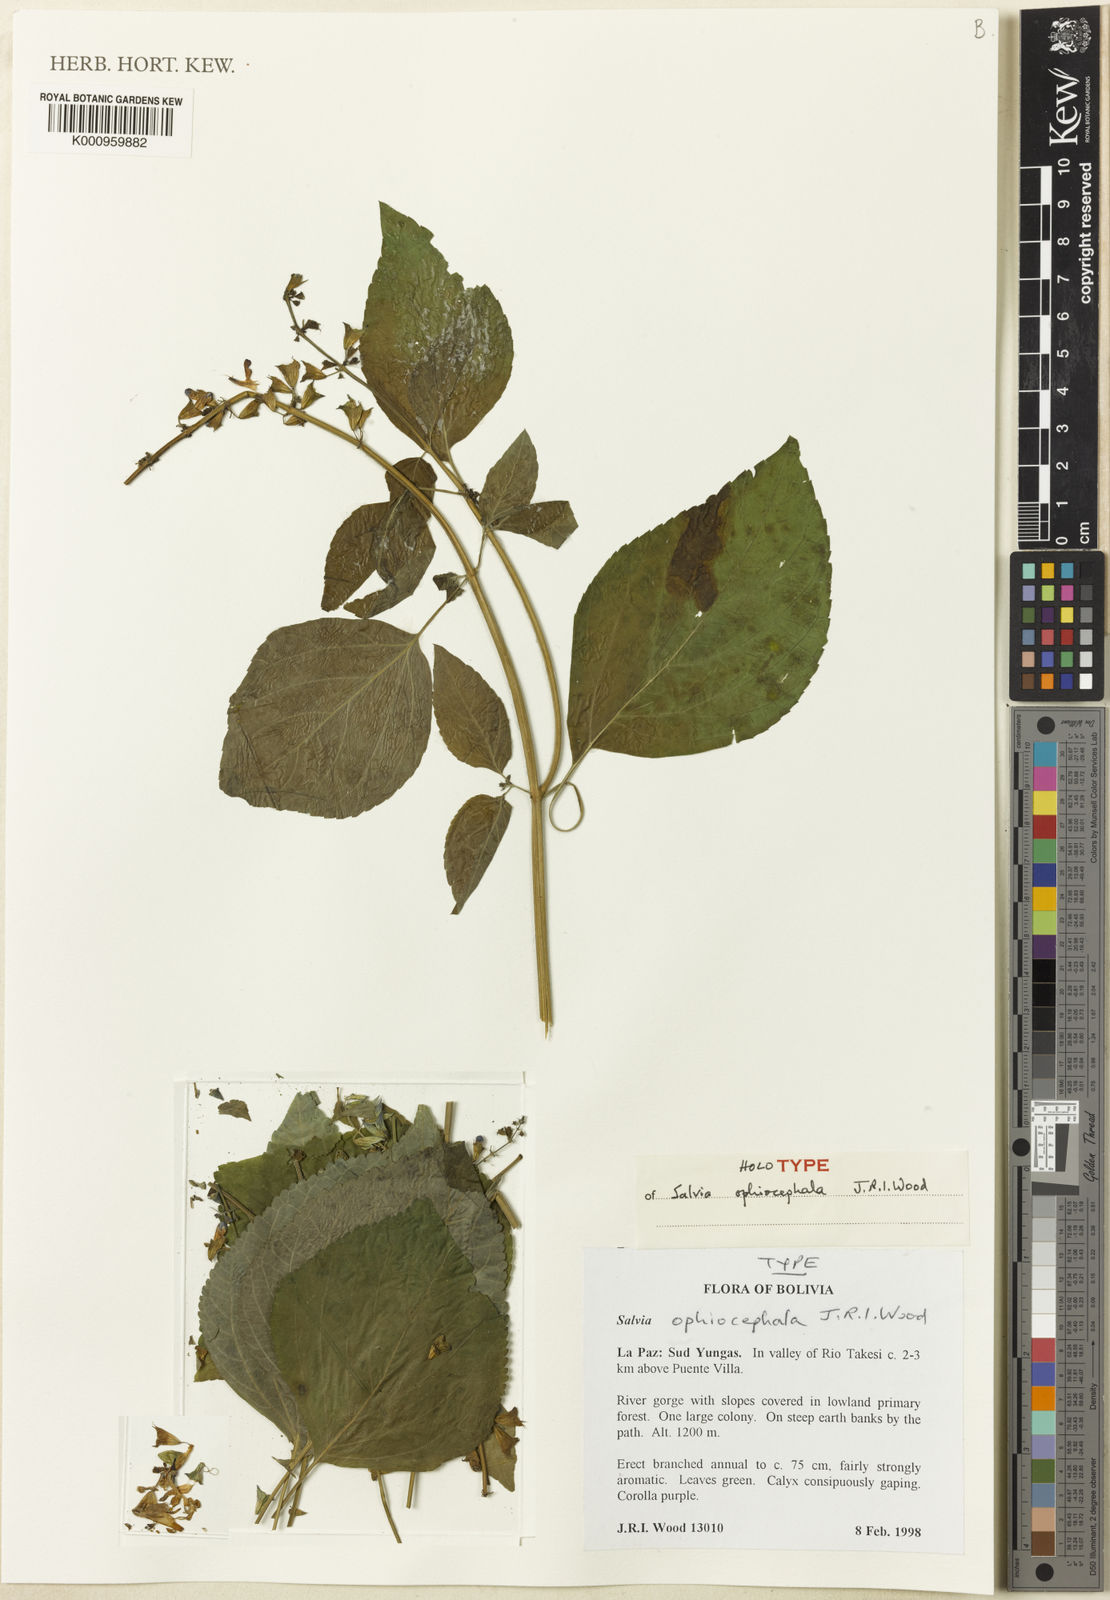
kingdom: Plantae
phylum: Tracheophyta
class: Magnoliopsida
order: Lamiales
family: Lamiaceae
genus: Salvia
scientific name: Salvia ophiocephala
